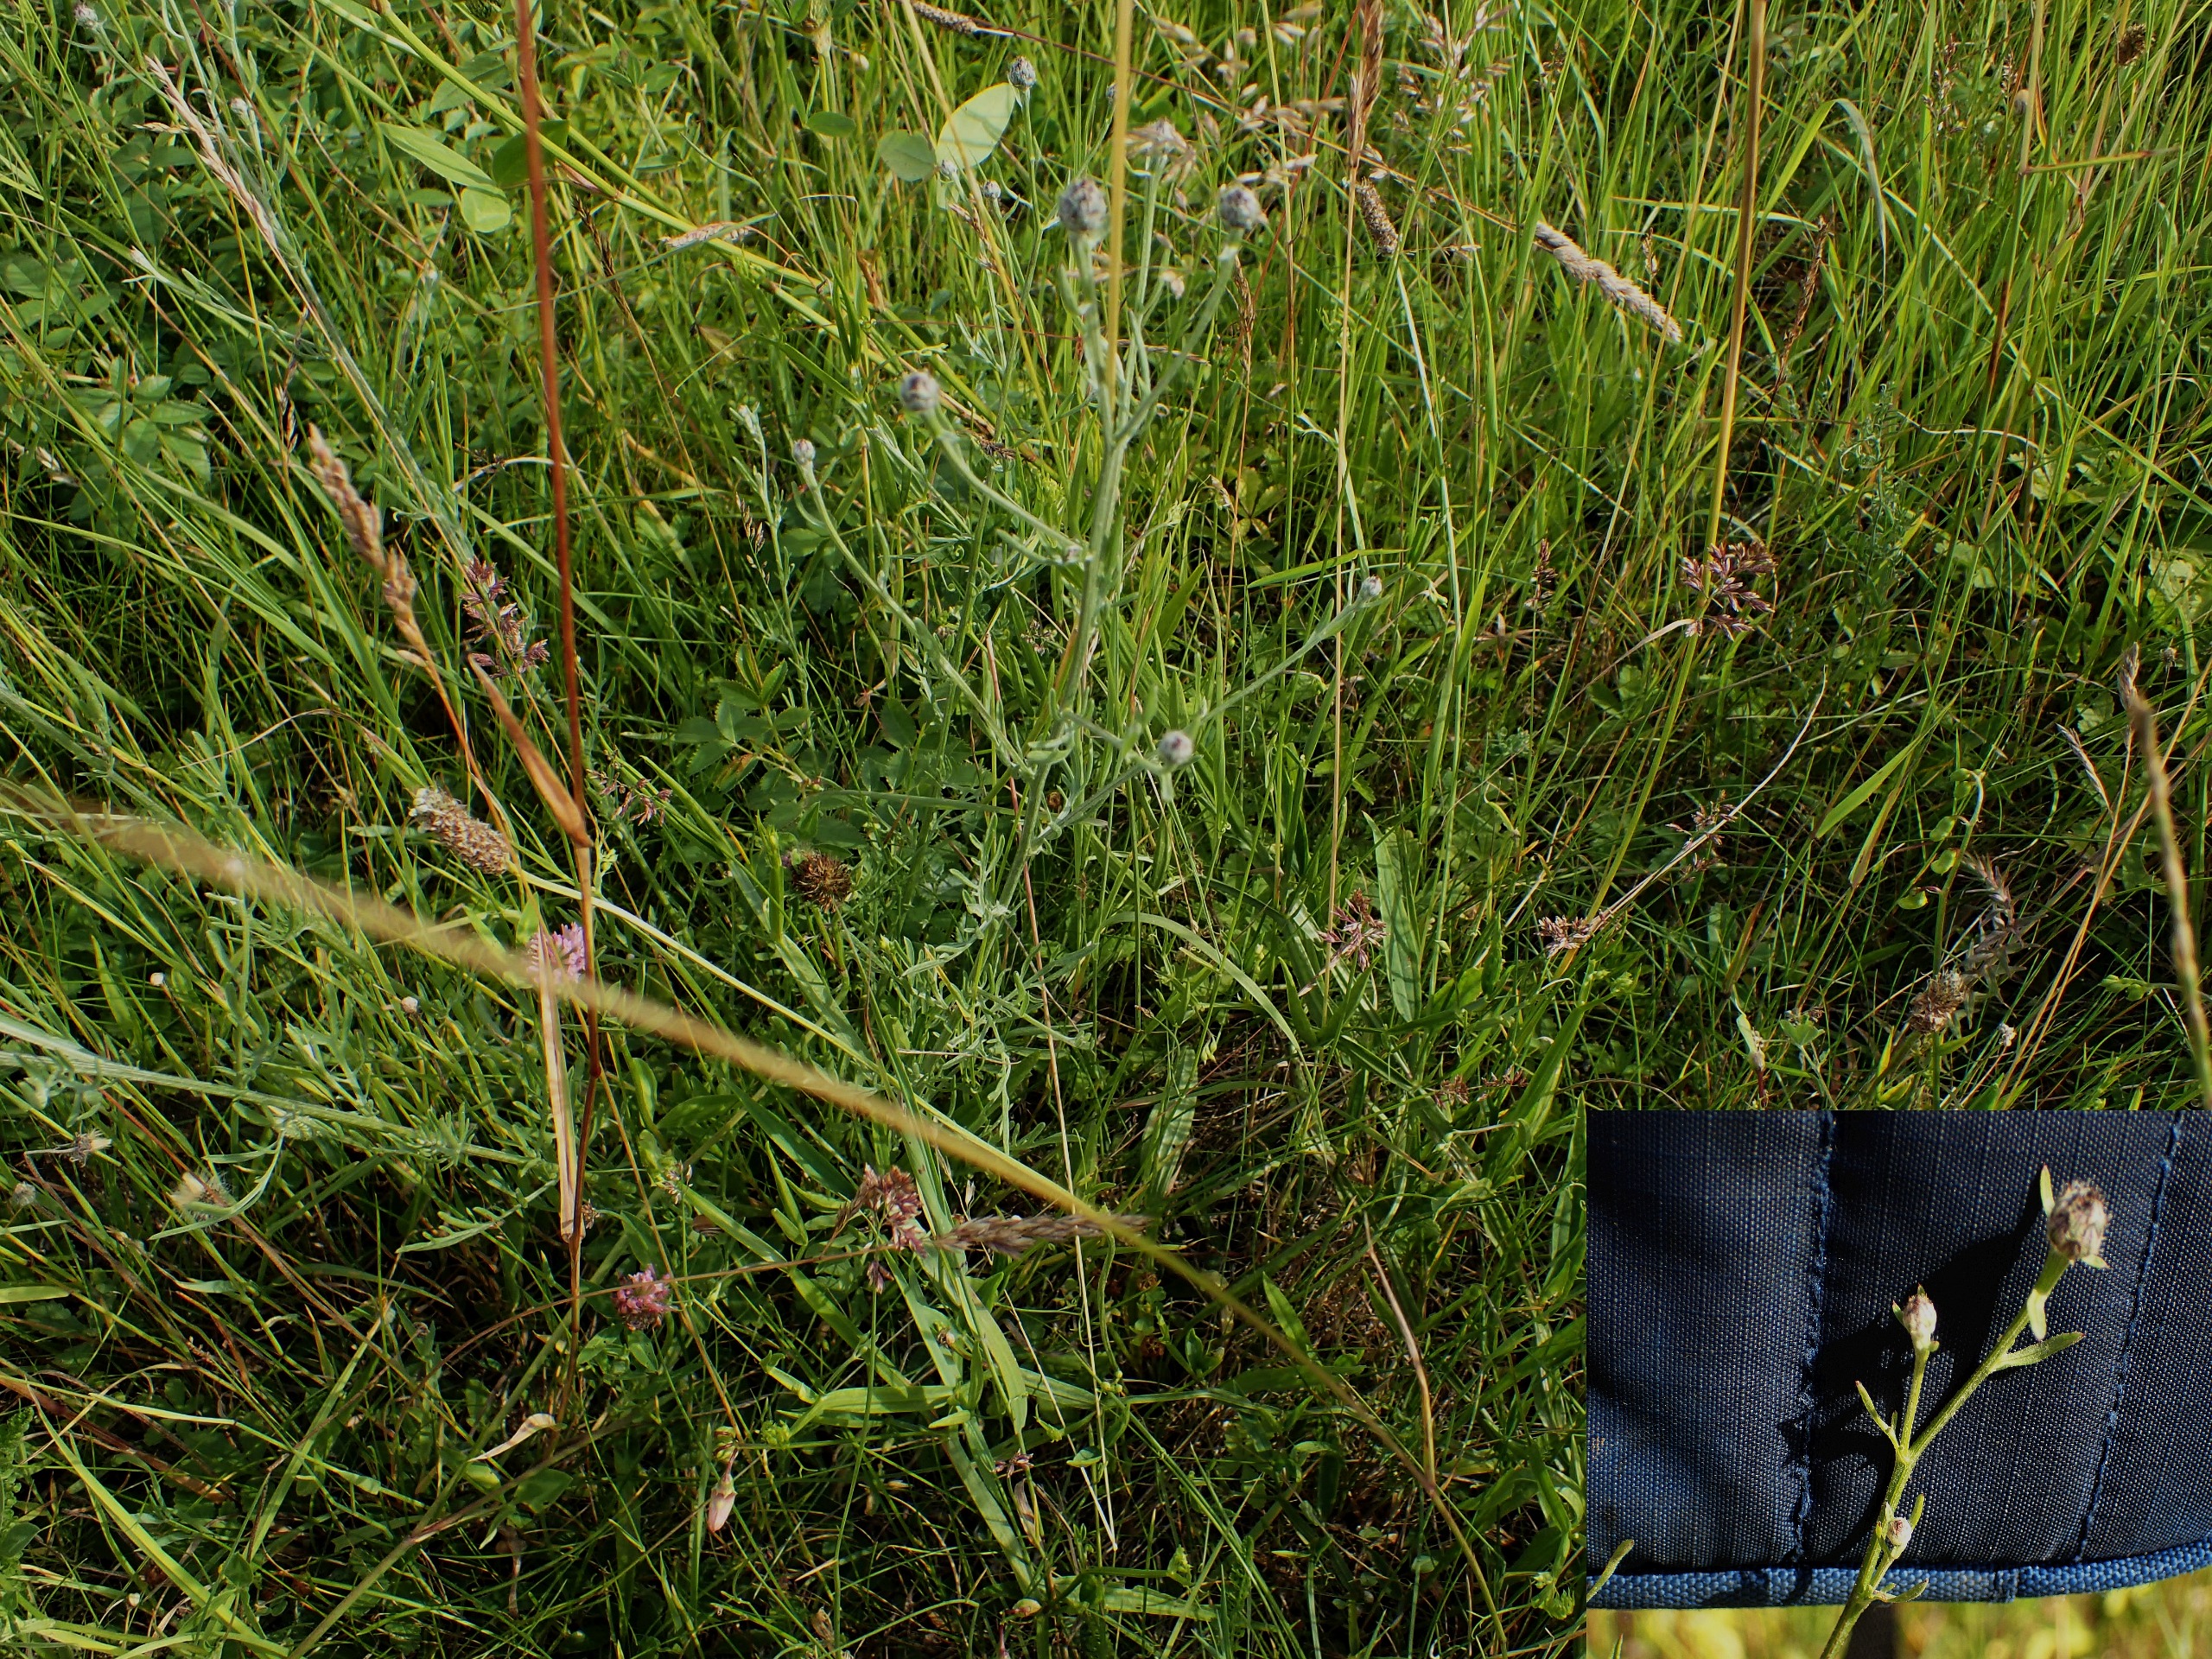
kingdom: Plantae
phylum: Tracheophyta
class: Magnoliopsida
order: Asterales
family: Asteraceae
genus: Centaurea
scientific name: Centaurea stoebe
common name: Mangegrenet knopurt
